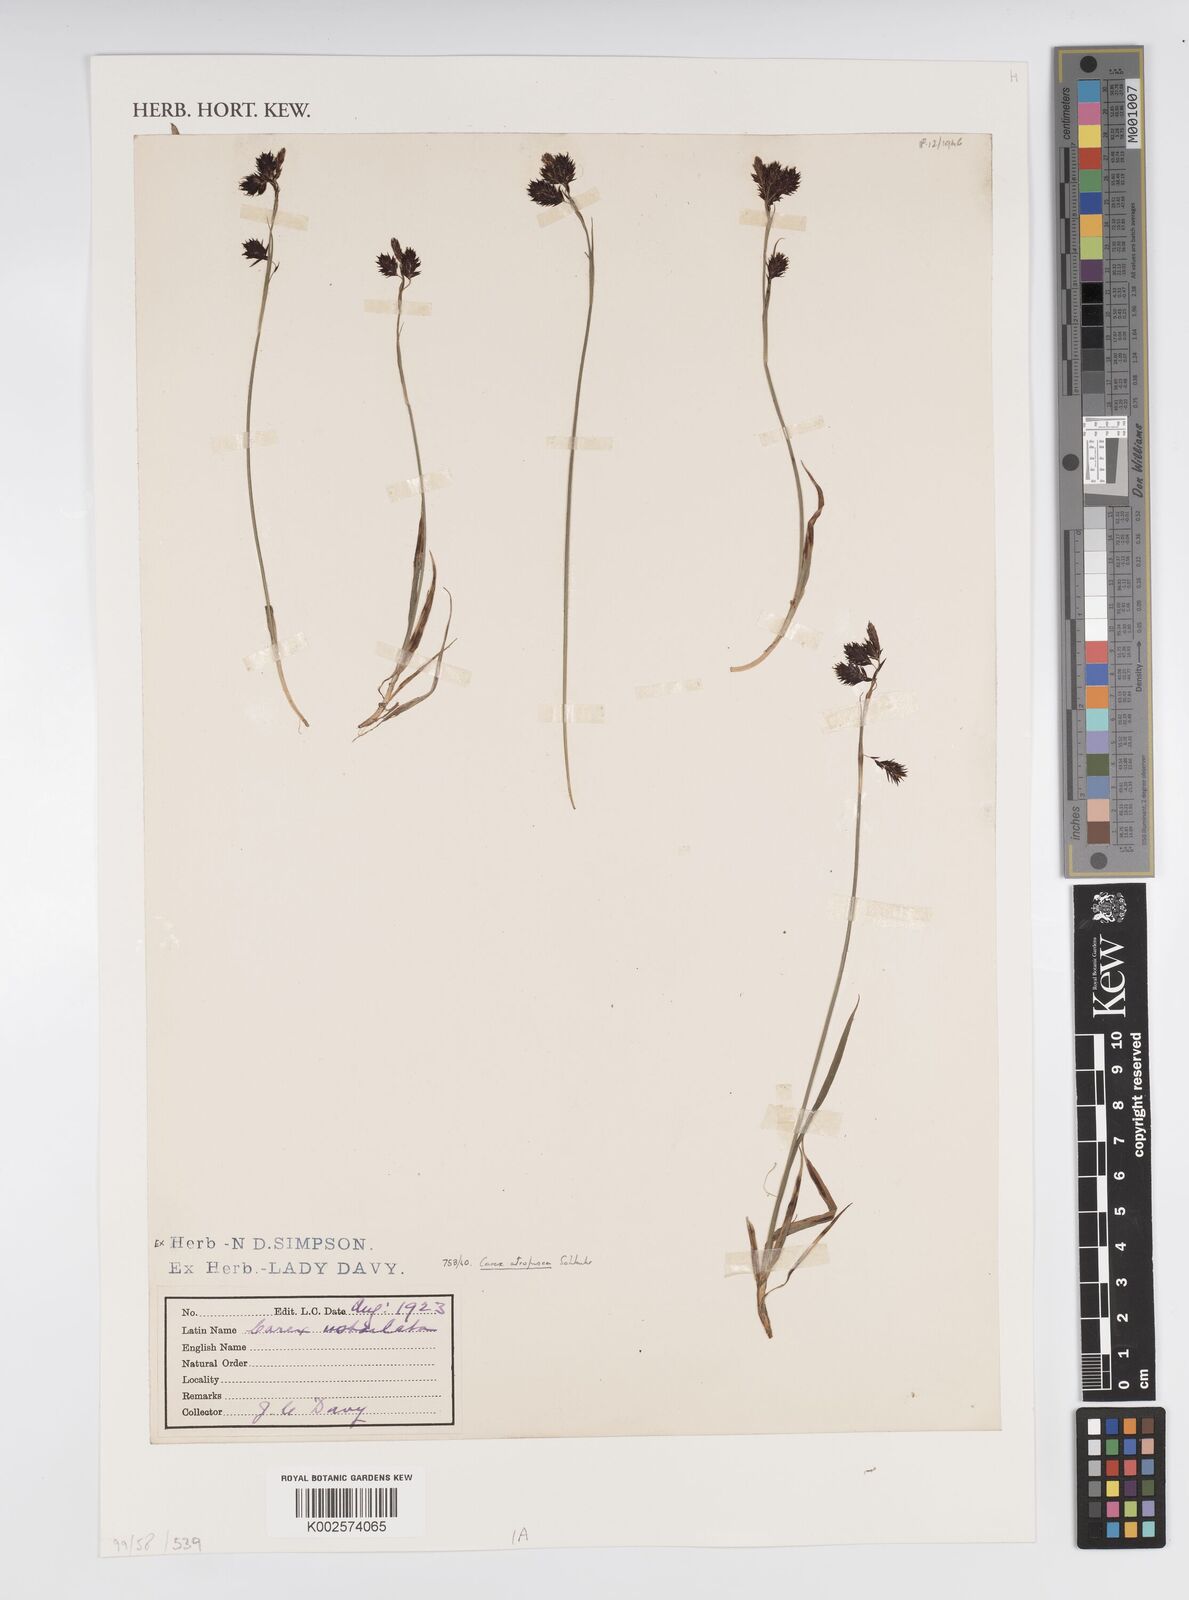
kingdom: Plantae
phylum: Tracheophyta
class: Liliopsida
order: Poales
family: Cyperaceae
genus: Carex
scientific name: Carex atrofusca
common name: Scorched alpine-sedge
